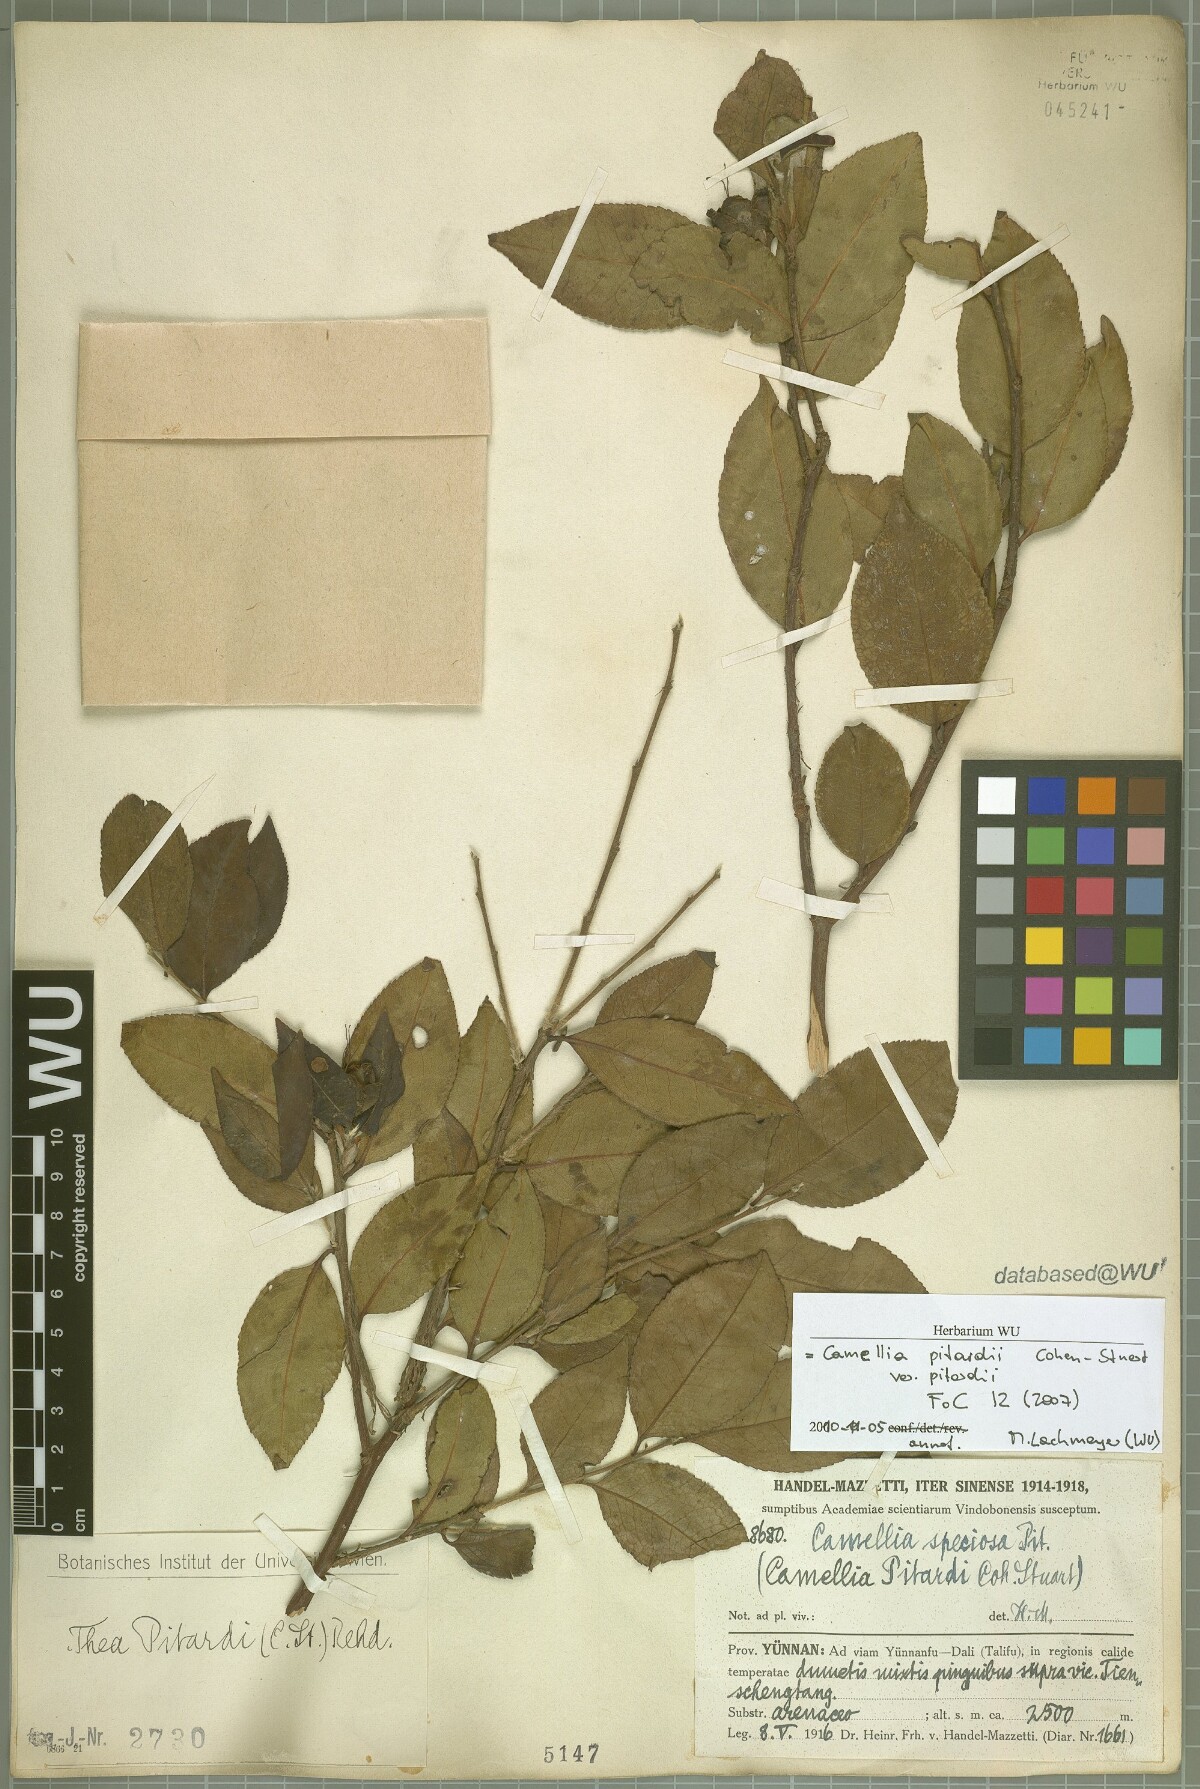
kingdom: Plantae
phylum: Tracheophyta
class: Magnoliopsida
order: Ericales
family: Theaceae
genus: Camellia
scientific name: Camellia pitardii
